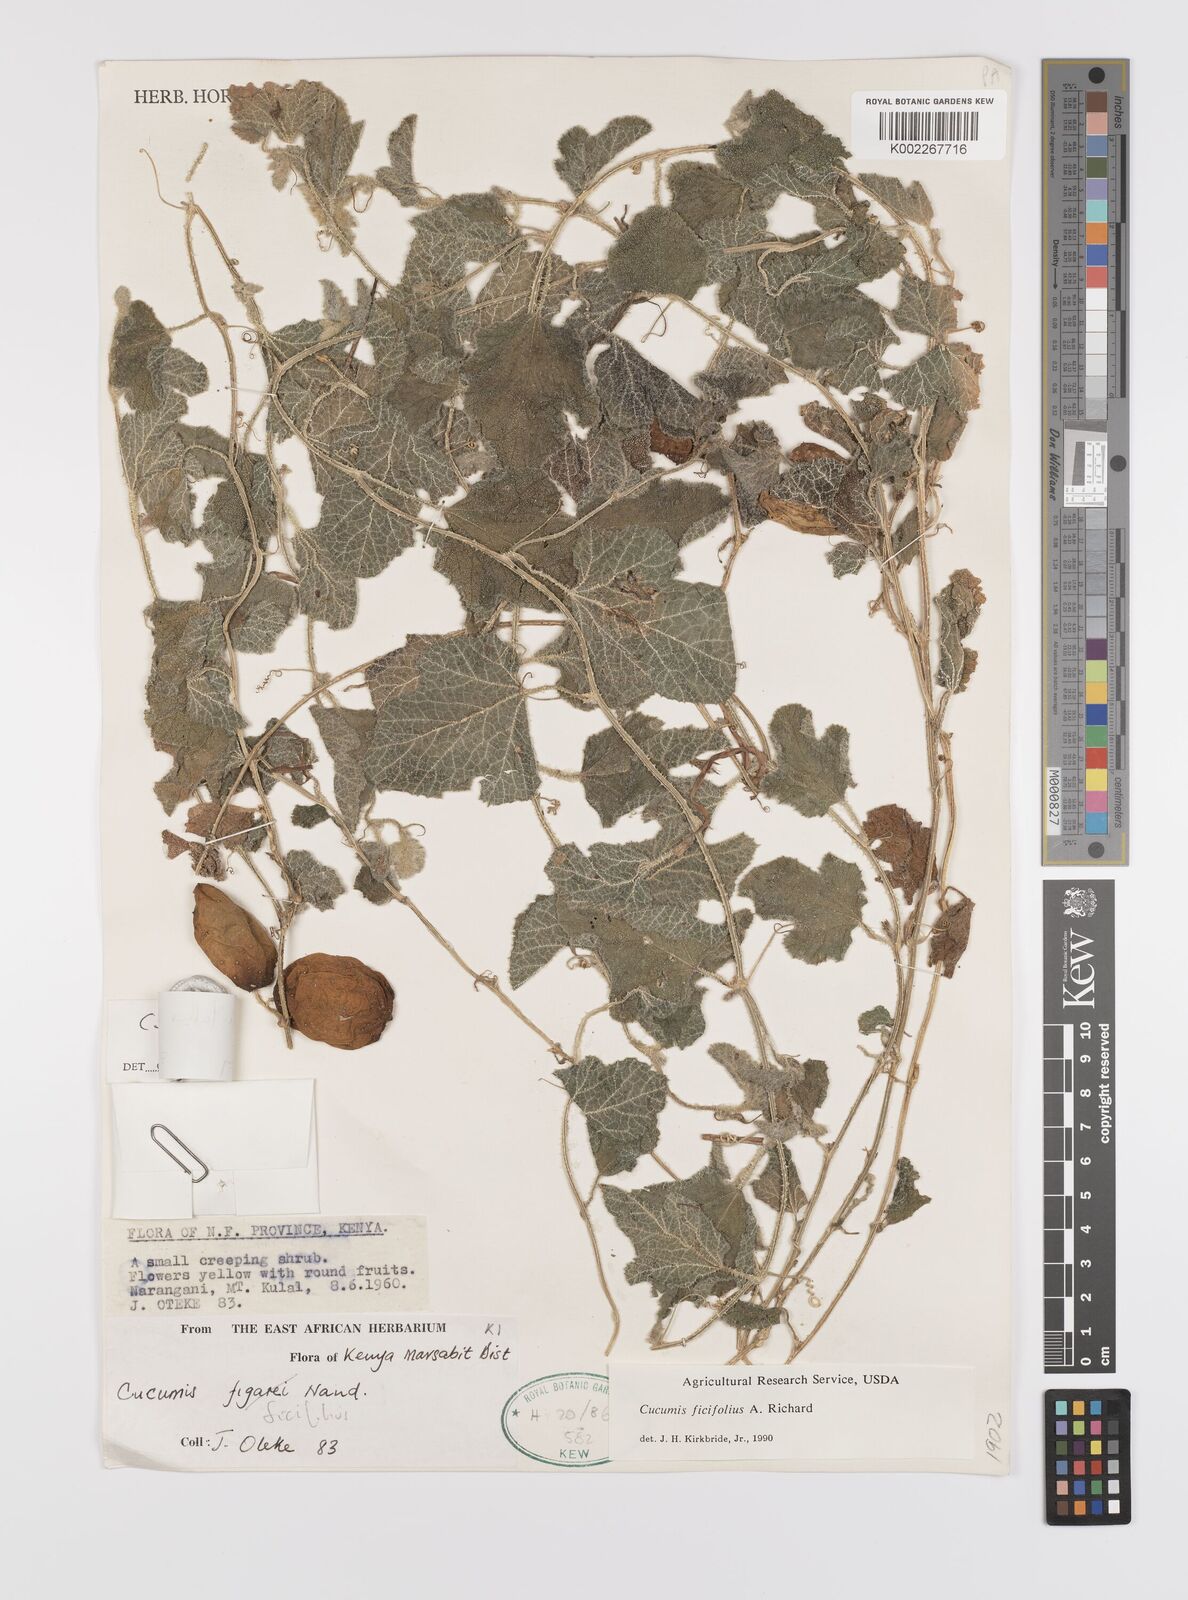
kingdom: Plantae
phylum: Tracheophyta
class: Magnoliopsida
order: Cucurbitales
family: Cucurbitaceae
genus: Cucumis
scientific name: Cucumis ficifolius
